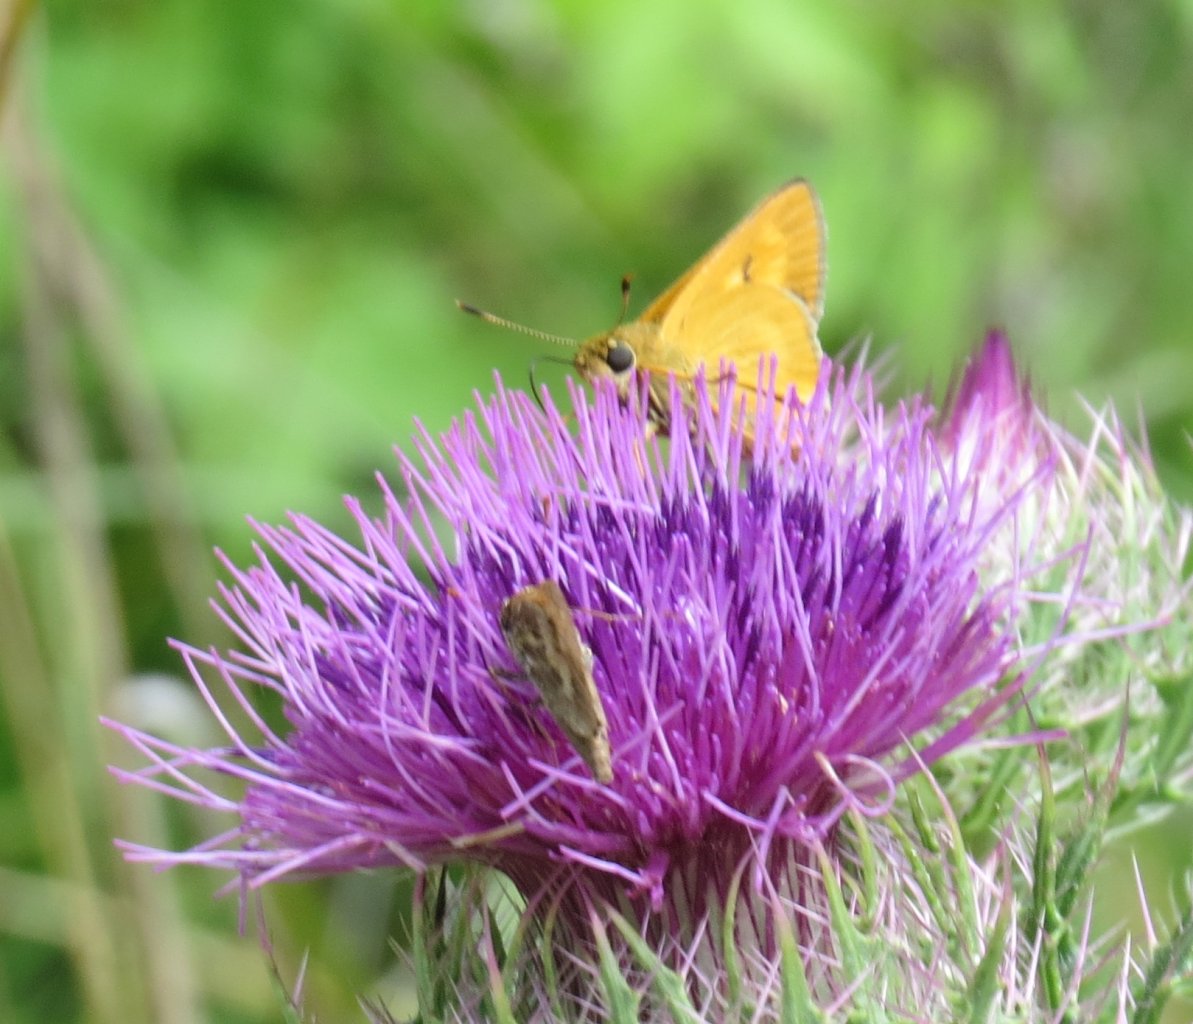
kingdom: Animalia
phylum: Arthropoda
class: Insecta
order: Lepidoptera
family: Hesperiidae
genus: Problema
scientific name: Problema byssus
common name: Byssus Skipper
